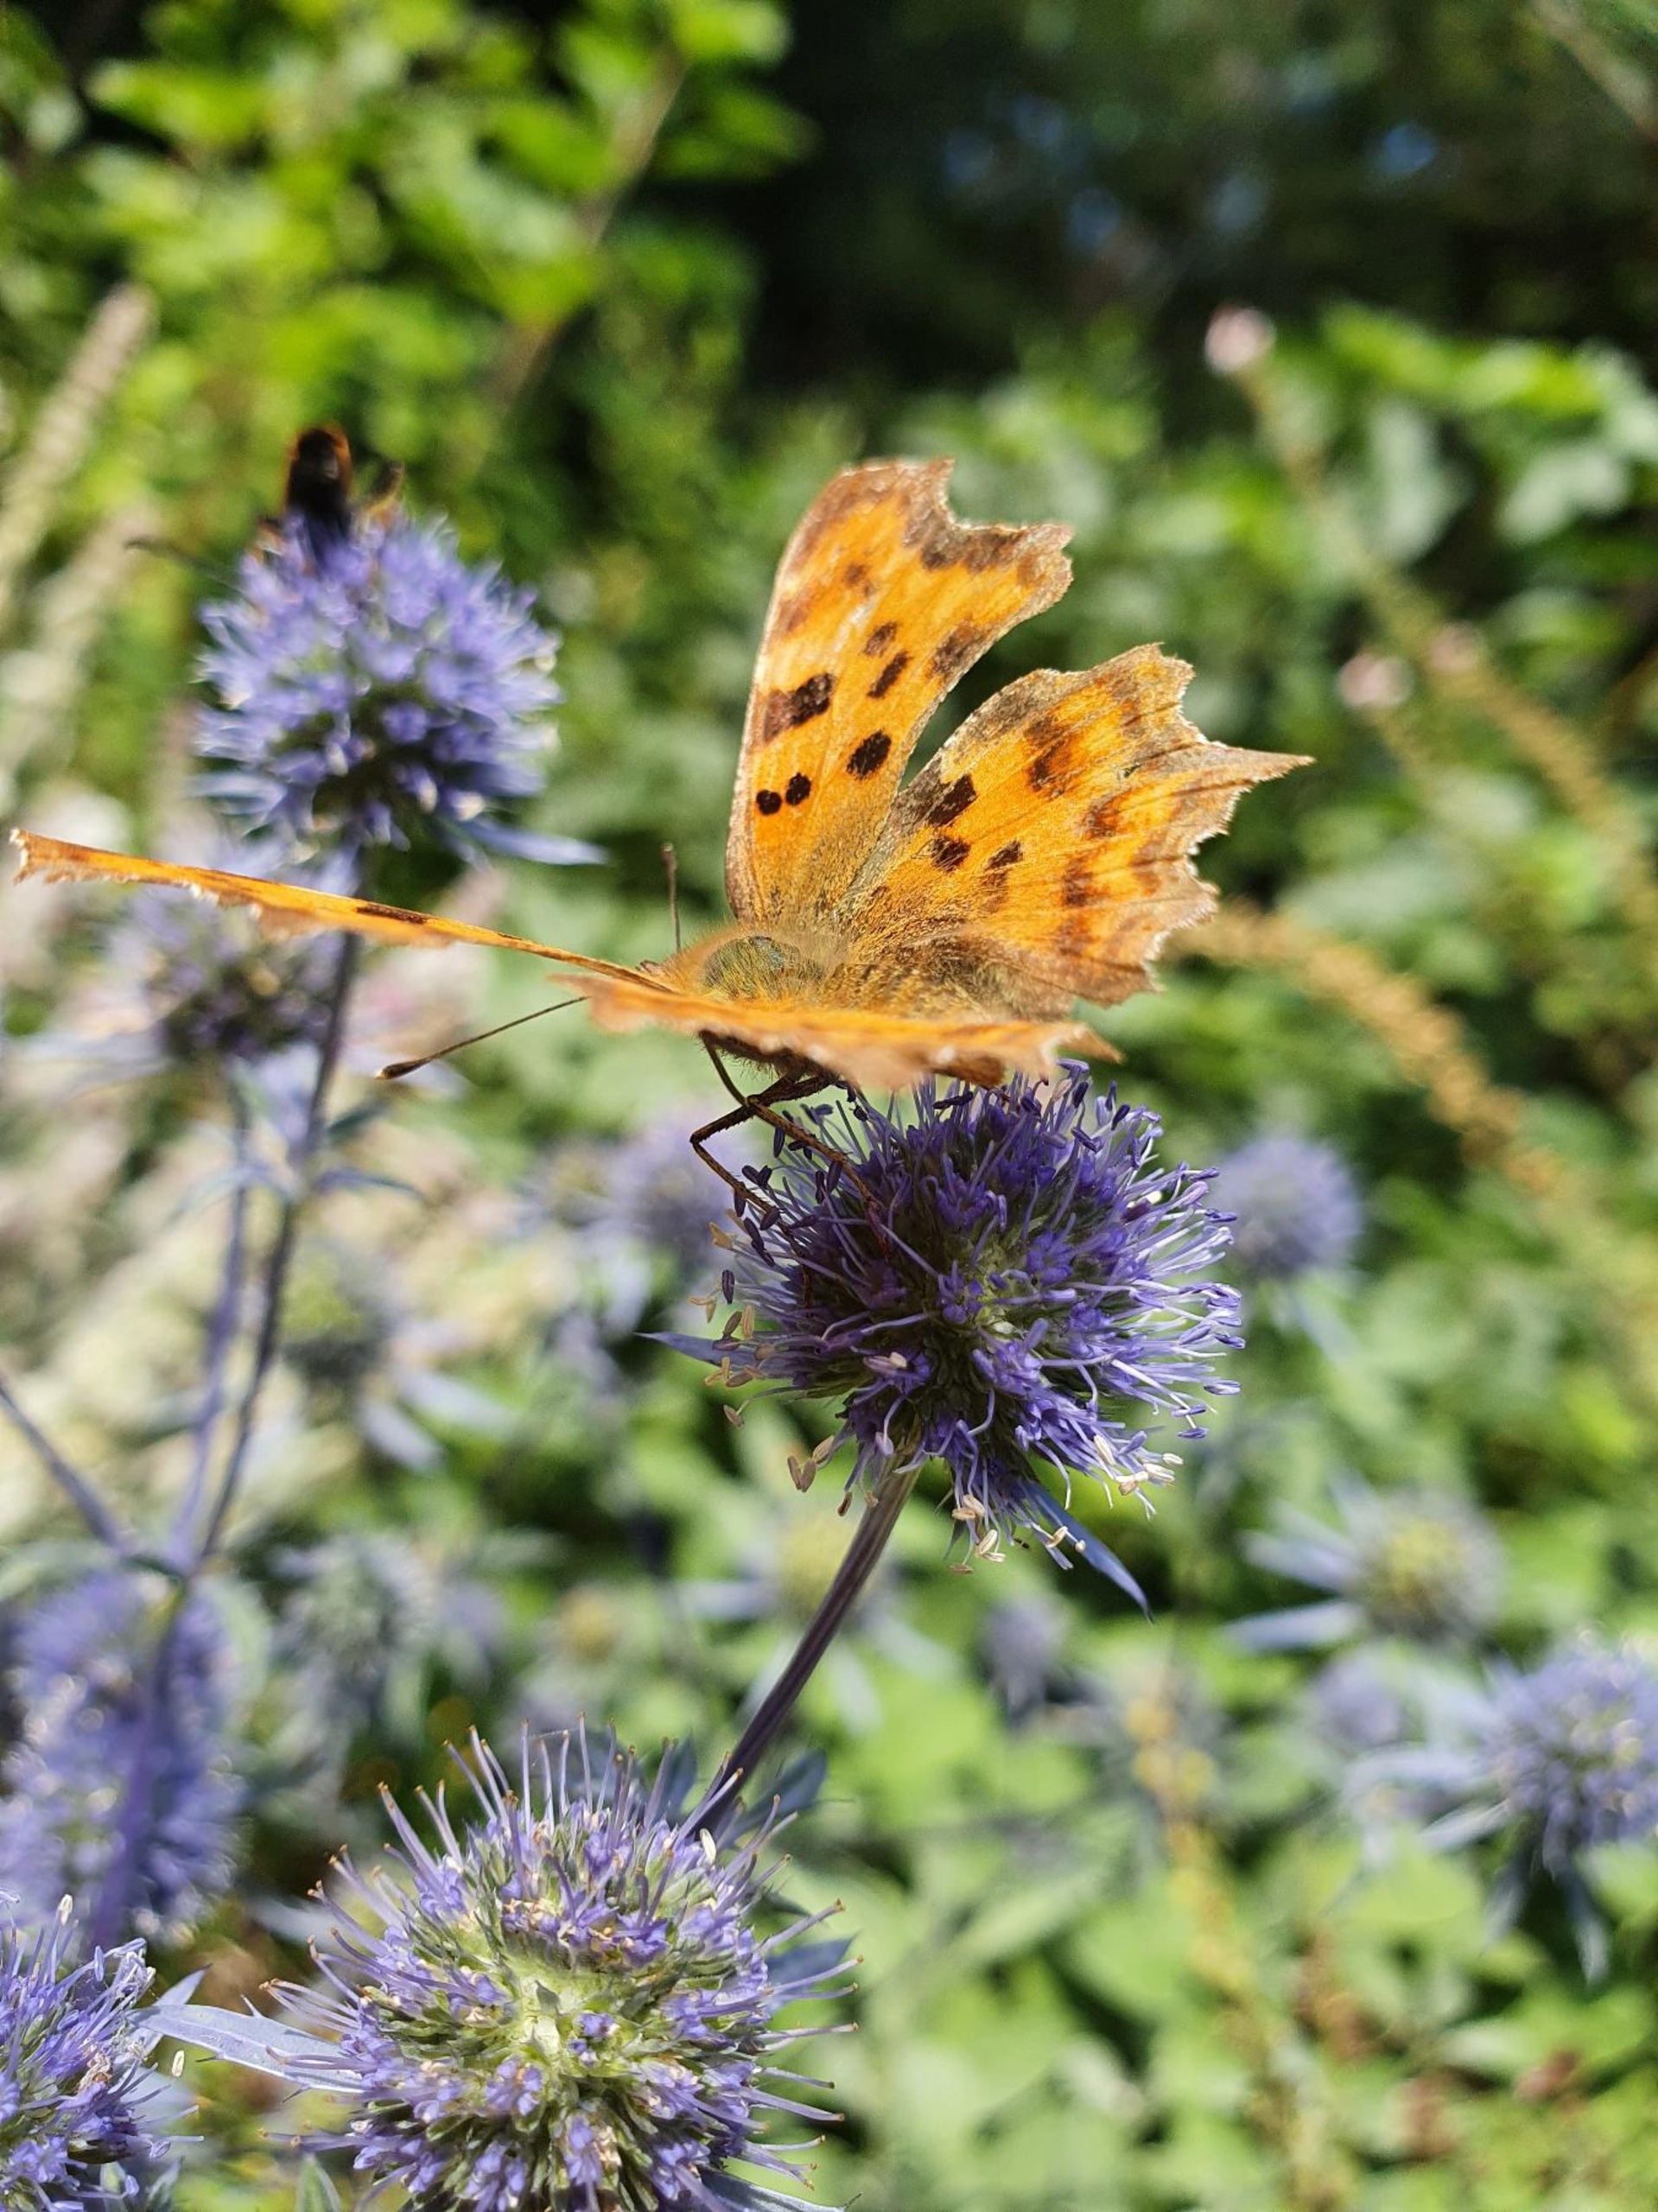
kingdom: Animalia
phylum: Arthropoda
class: Insecta
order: Lepidoptera
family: Nymphalidae
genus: Polygonia
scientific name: Polygonia c-album
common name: Det hvide C
